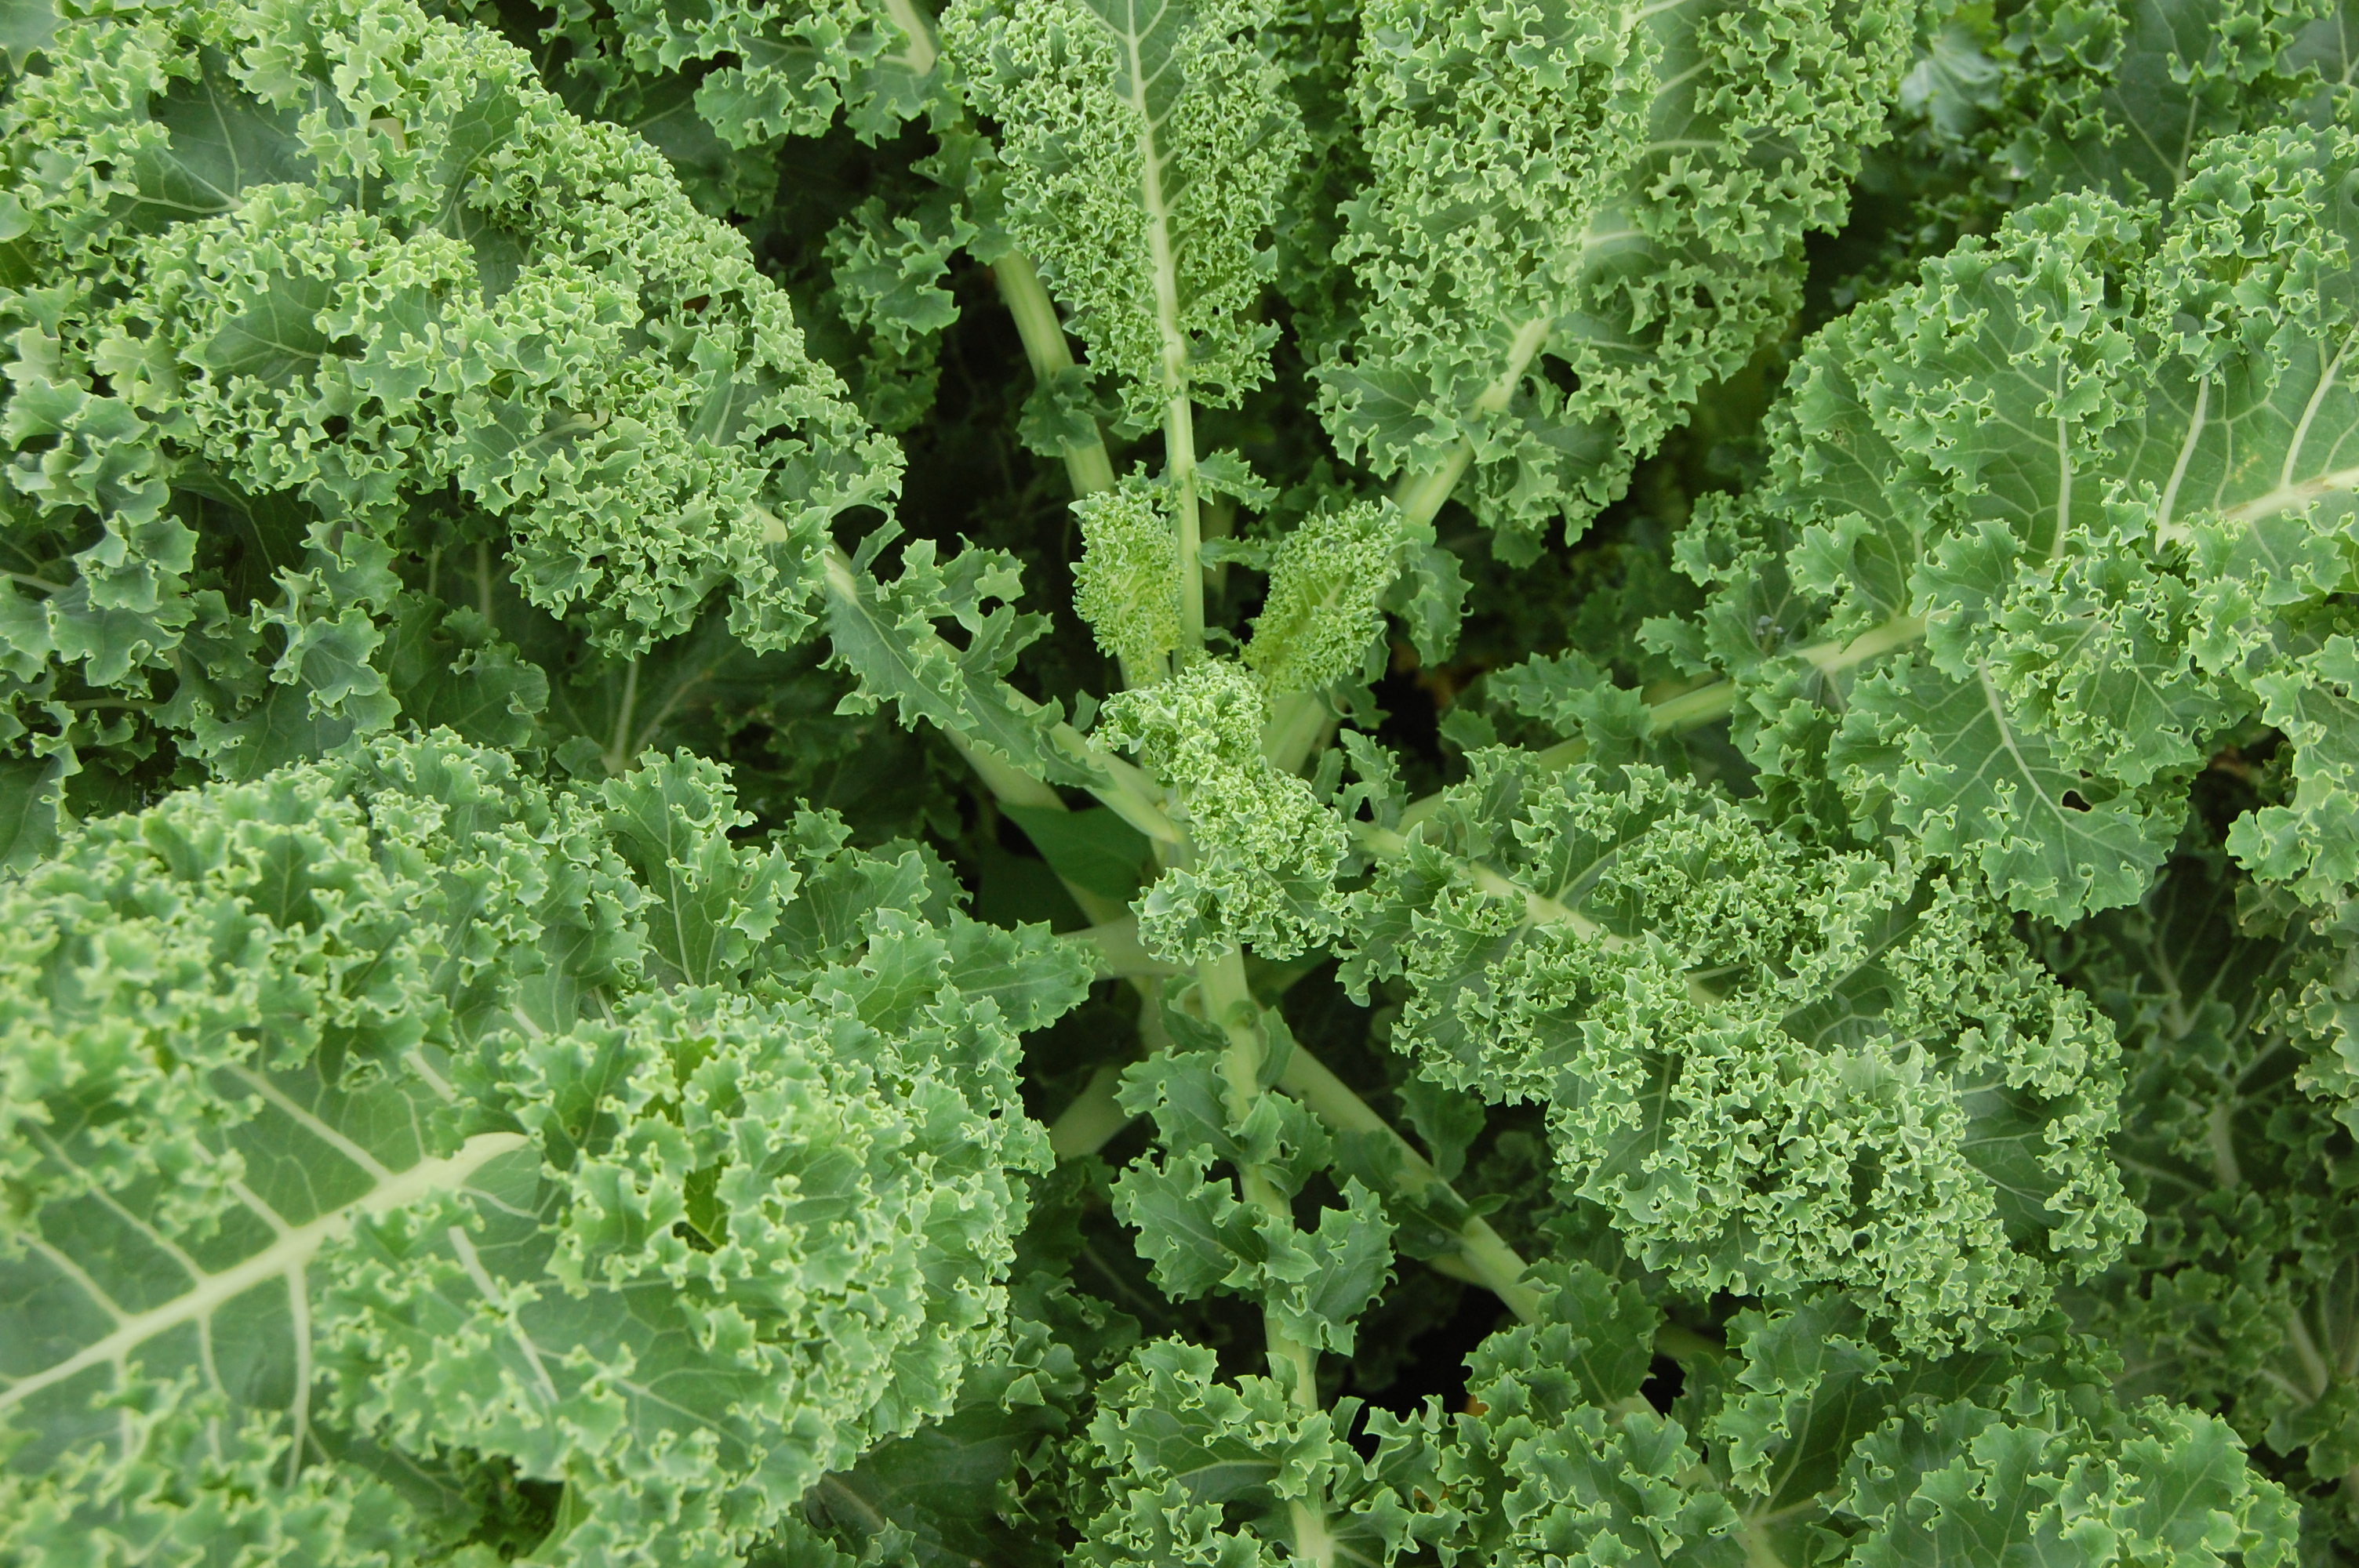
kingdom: Plantae
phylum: Tracheophyta
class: Magnoliopsida
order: Brassicales
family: Brassicaceae
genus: Brassica
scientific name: Brassica oleracea
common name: Cabbage
